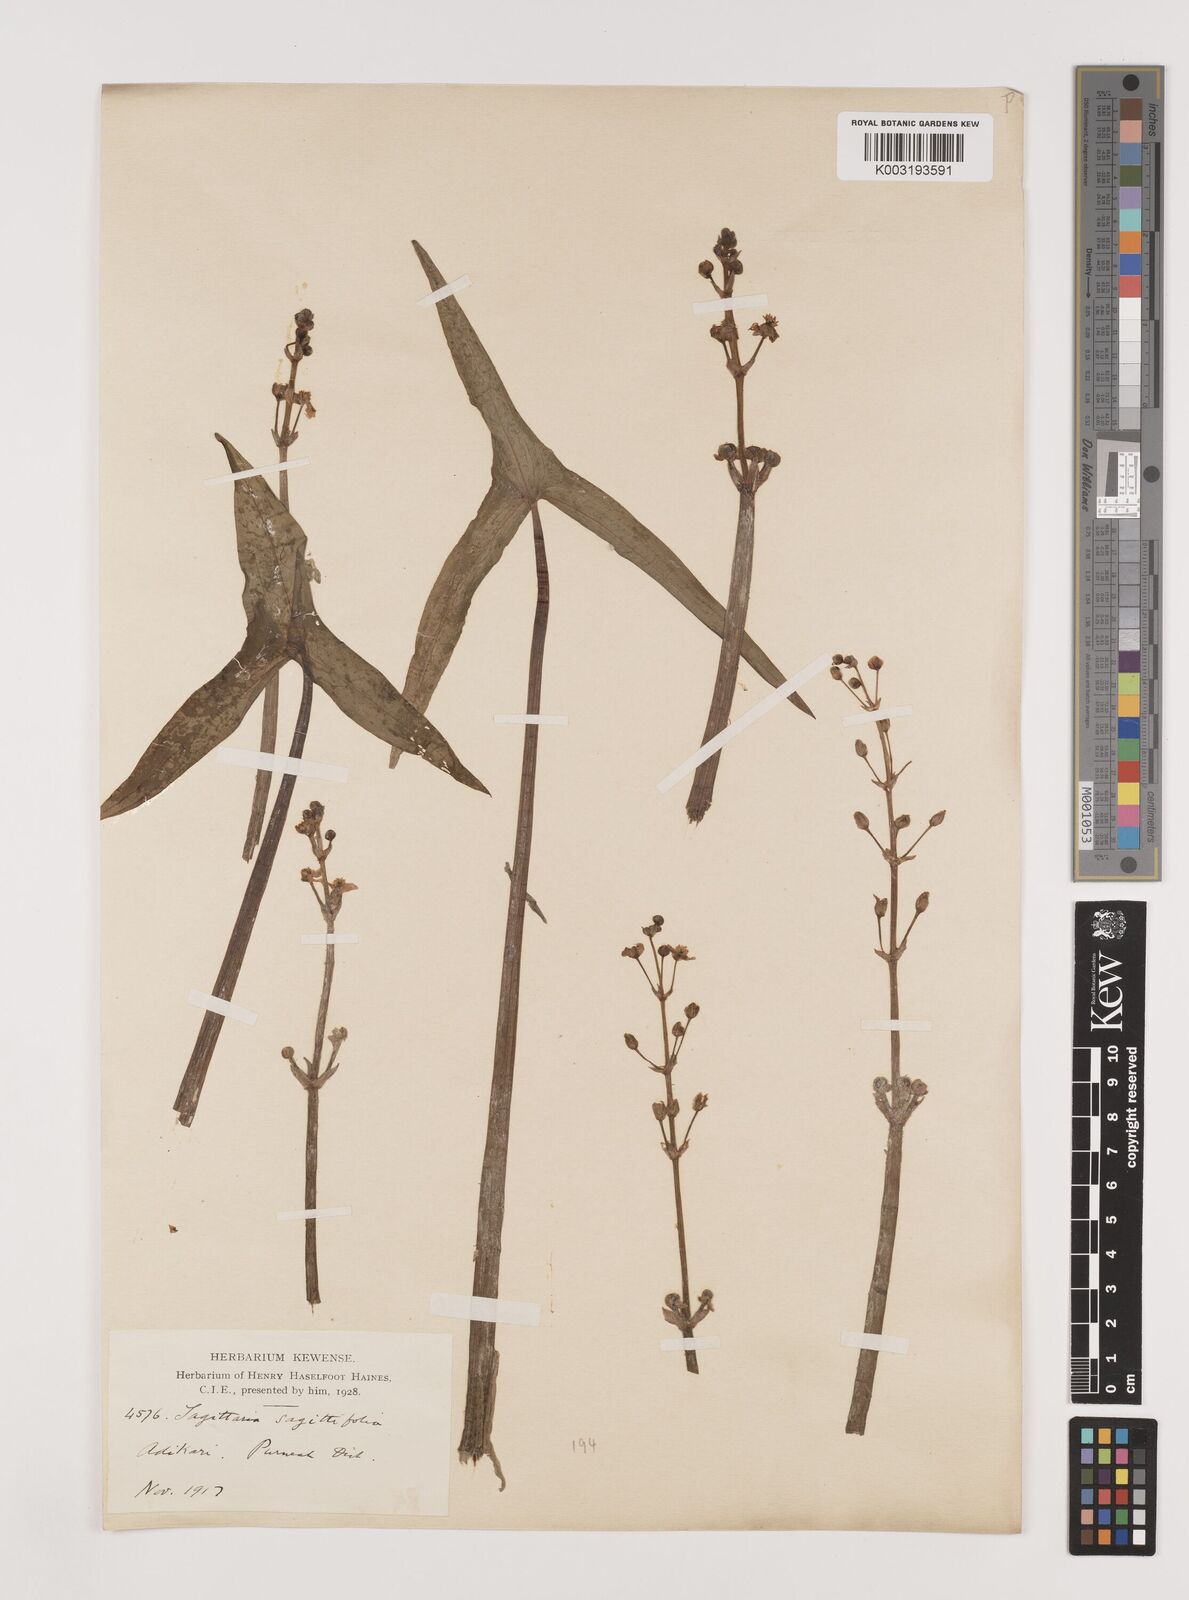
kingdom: Plantae
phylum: Tracheophyta
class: Liliopsida
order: Alismatales
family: Alismataceae
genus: Sagittaria
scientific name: Sagittaria sagittifolia
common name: Arrowhead
